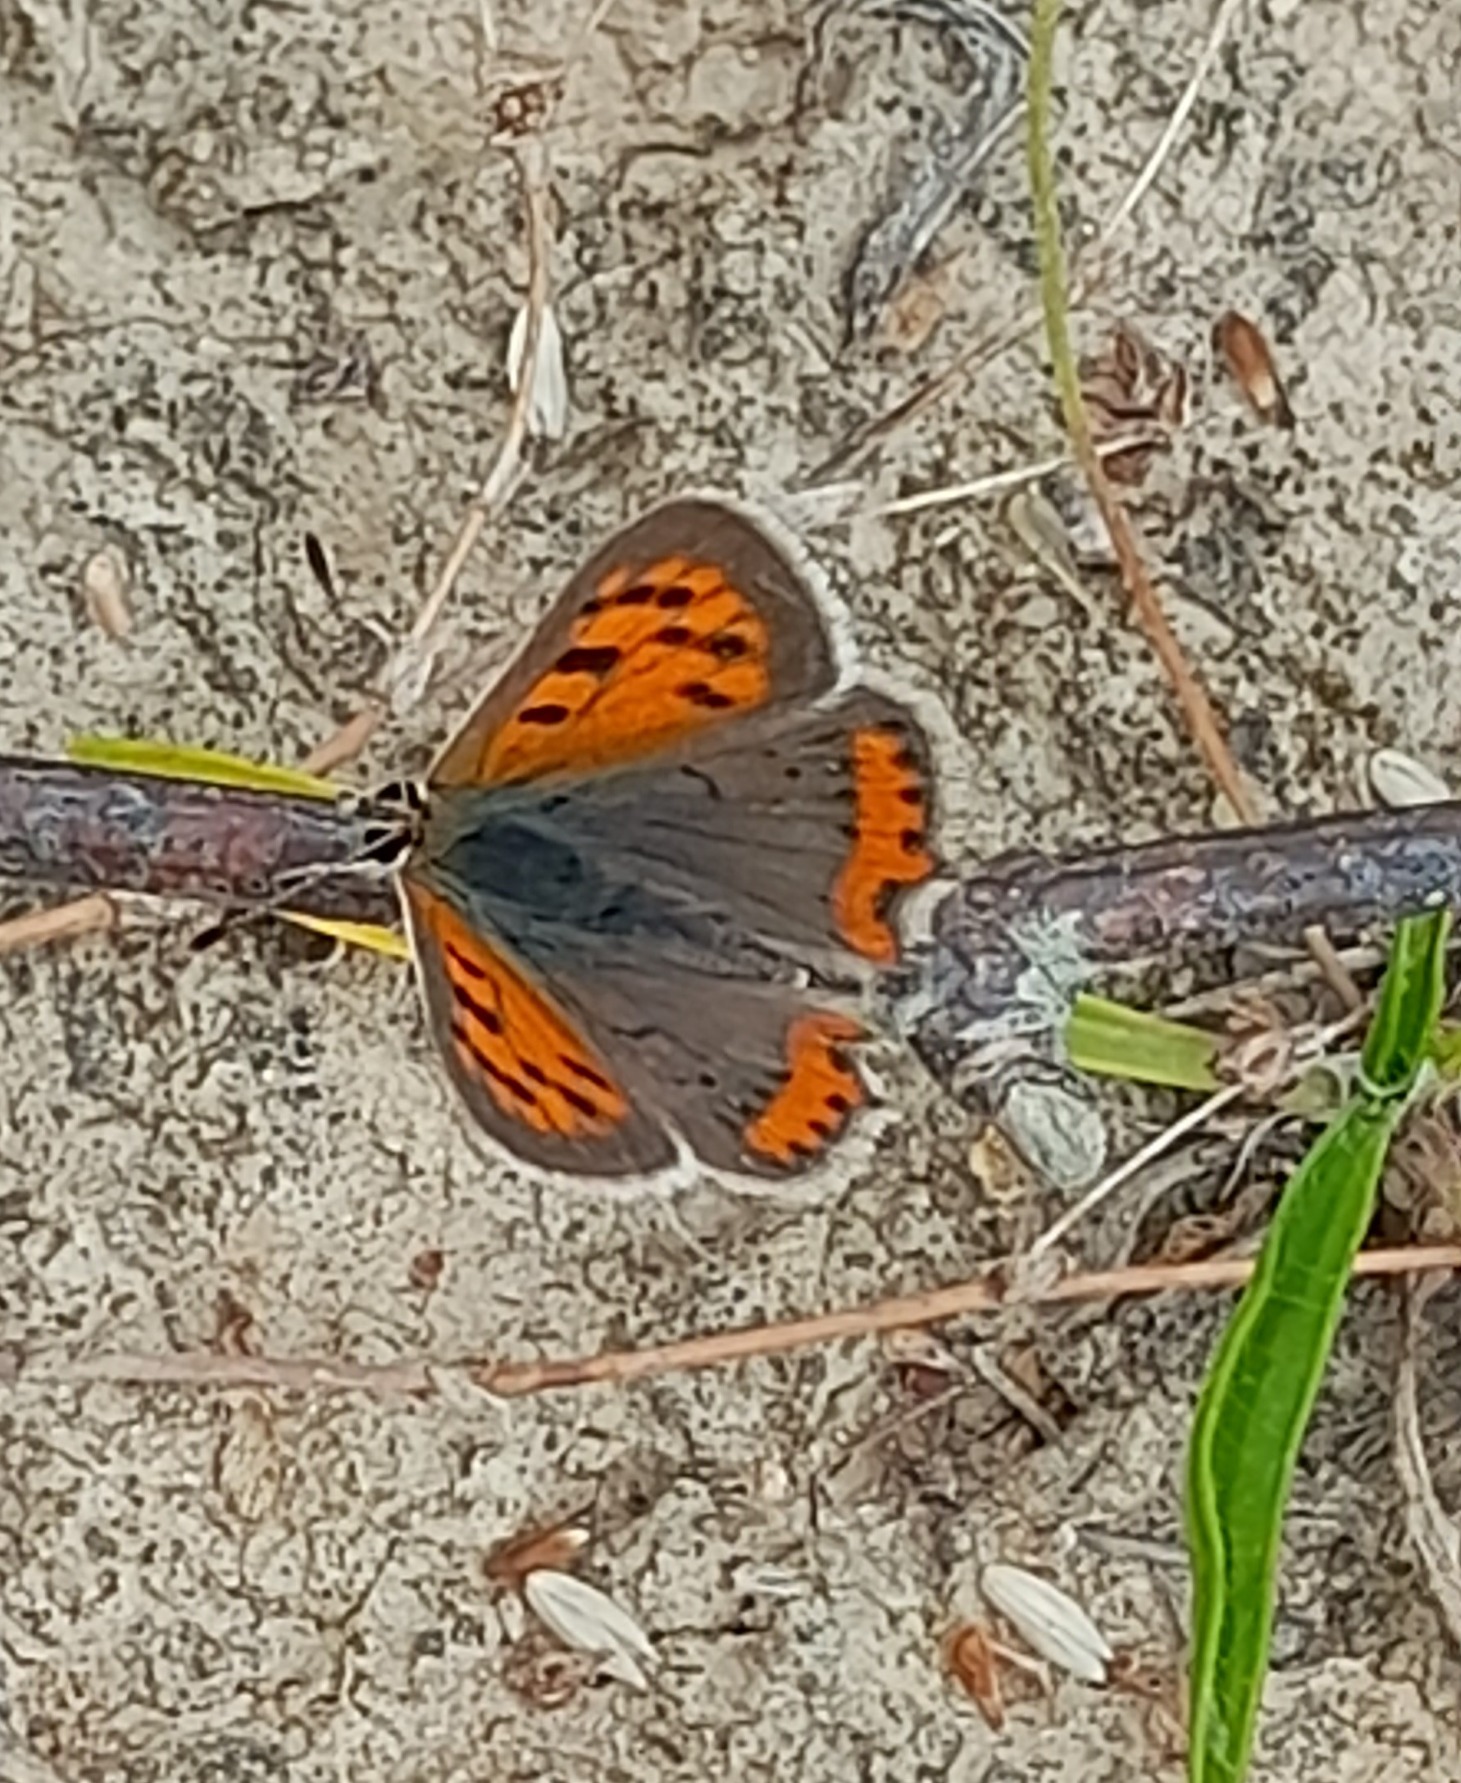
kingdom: Animalia
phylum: Arthropoda
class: Insecta
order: Lepidoptera
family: Lycaenidae
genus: Lycaena
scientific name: Lycaena phlaeas
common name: Lille ildfugl
